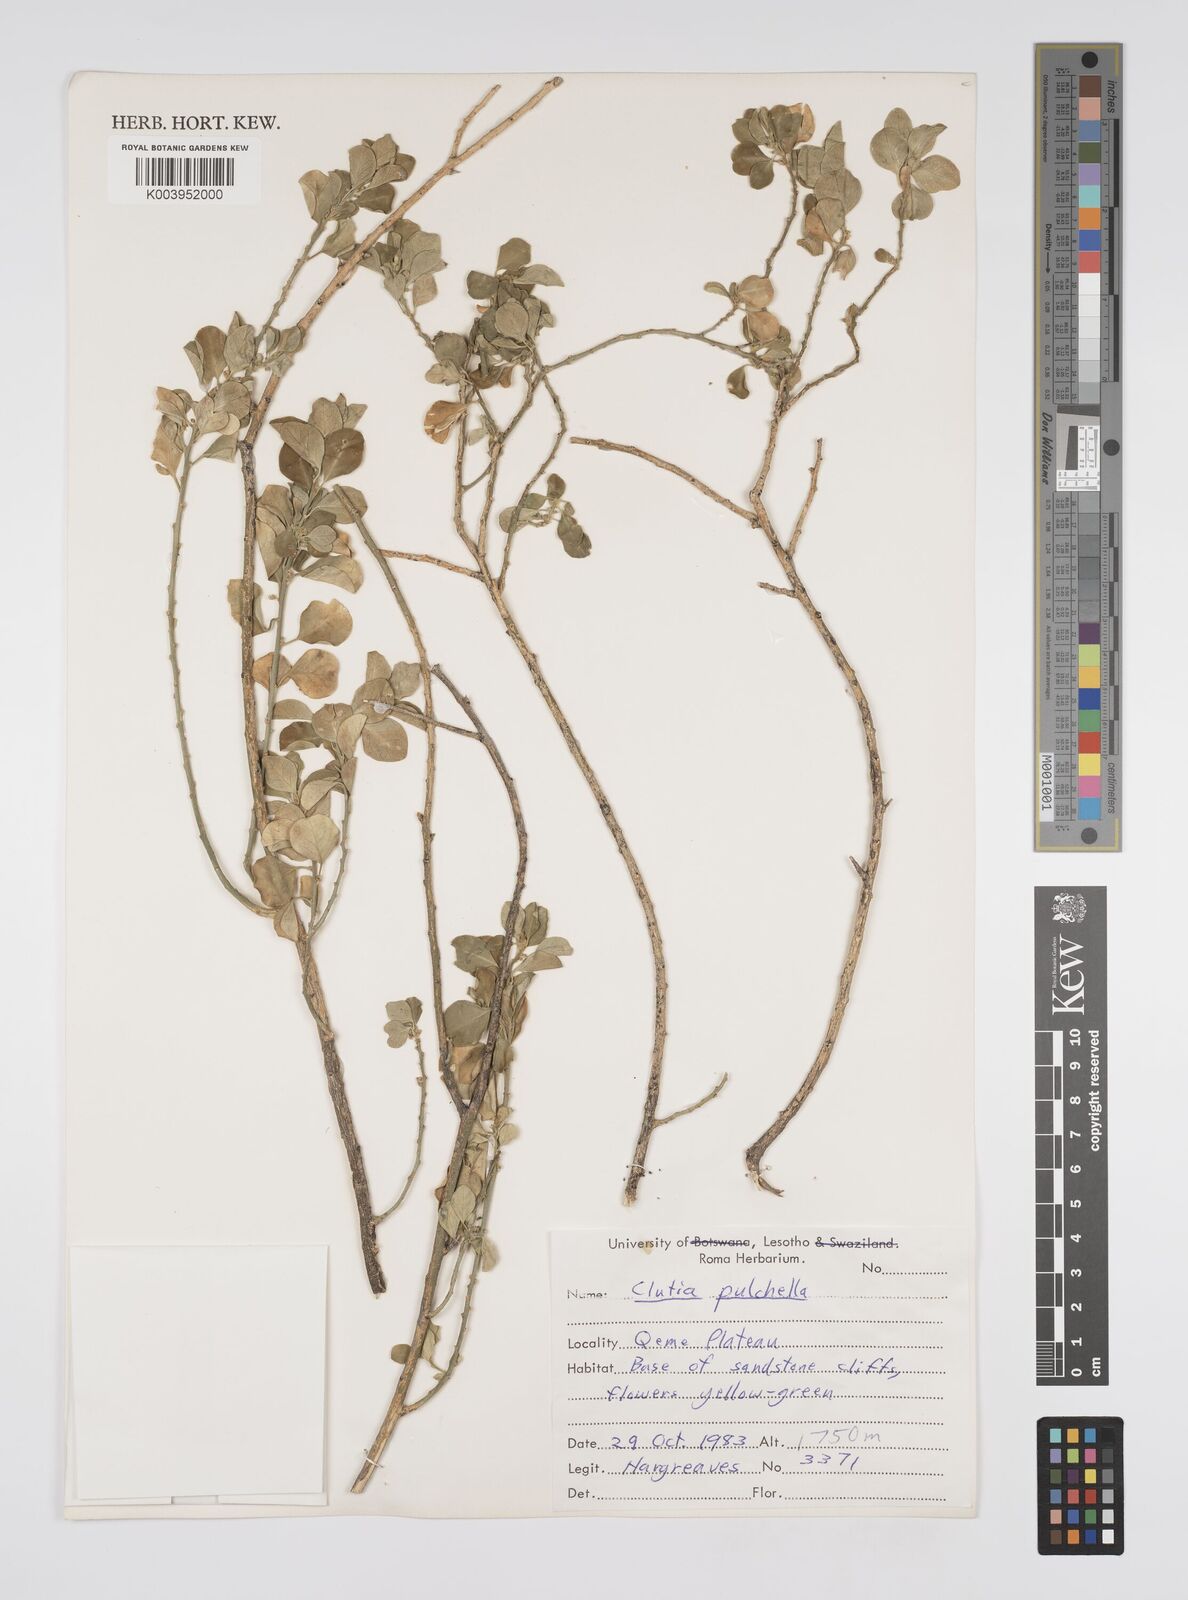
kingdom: Plantae
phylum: Tracheophyta
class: Magnoliopsida
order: Malpighiales
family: Peraceae
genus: Clutia
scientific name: Clutia pulchella
